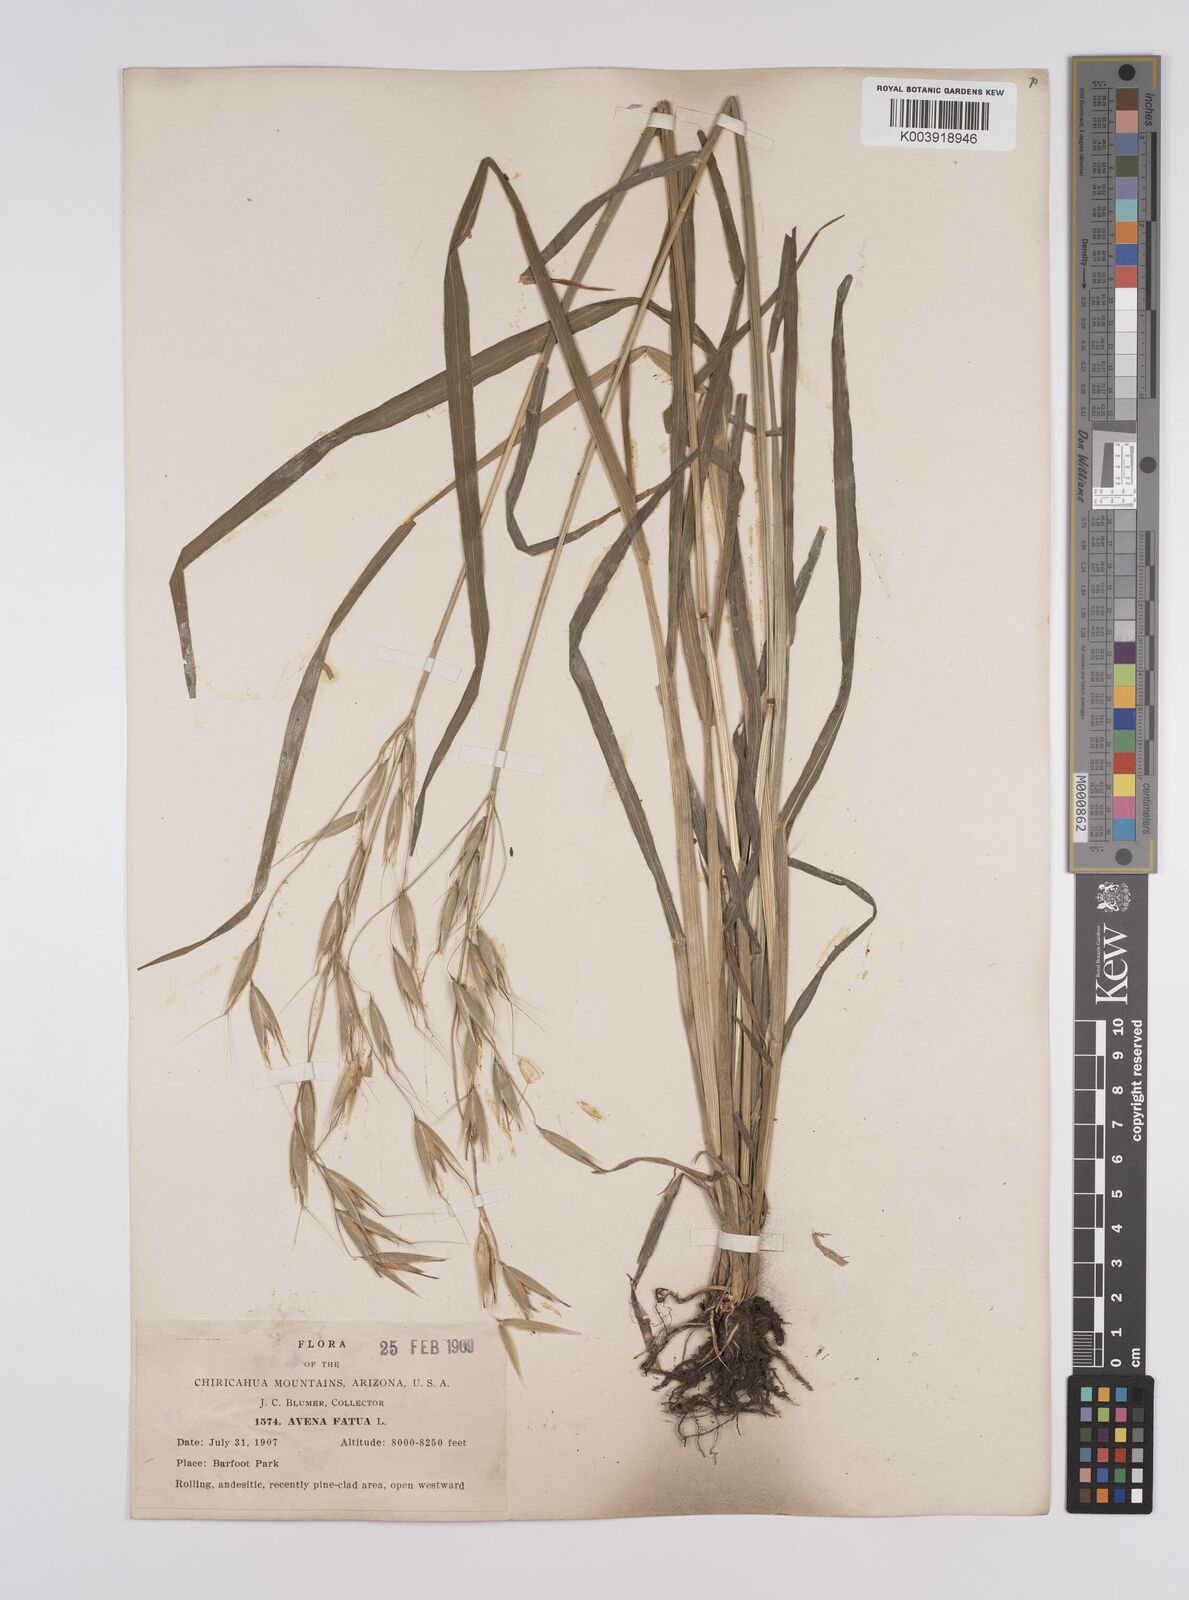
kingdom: Plantae
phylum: Tracheophyta
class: Liliopsida
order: Poales
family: Poaceae
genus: Avena
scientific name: Avena fatua
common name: Wild oat
